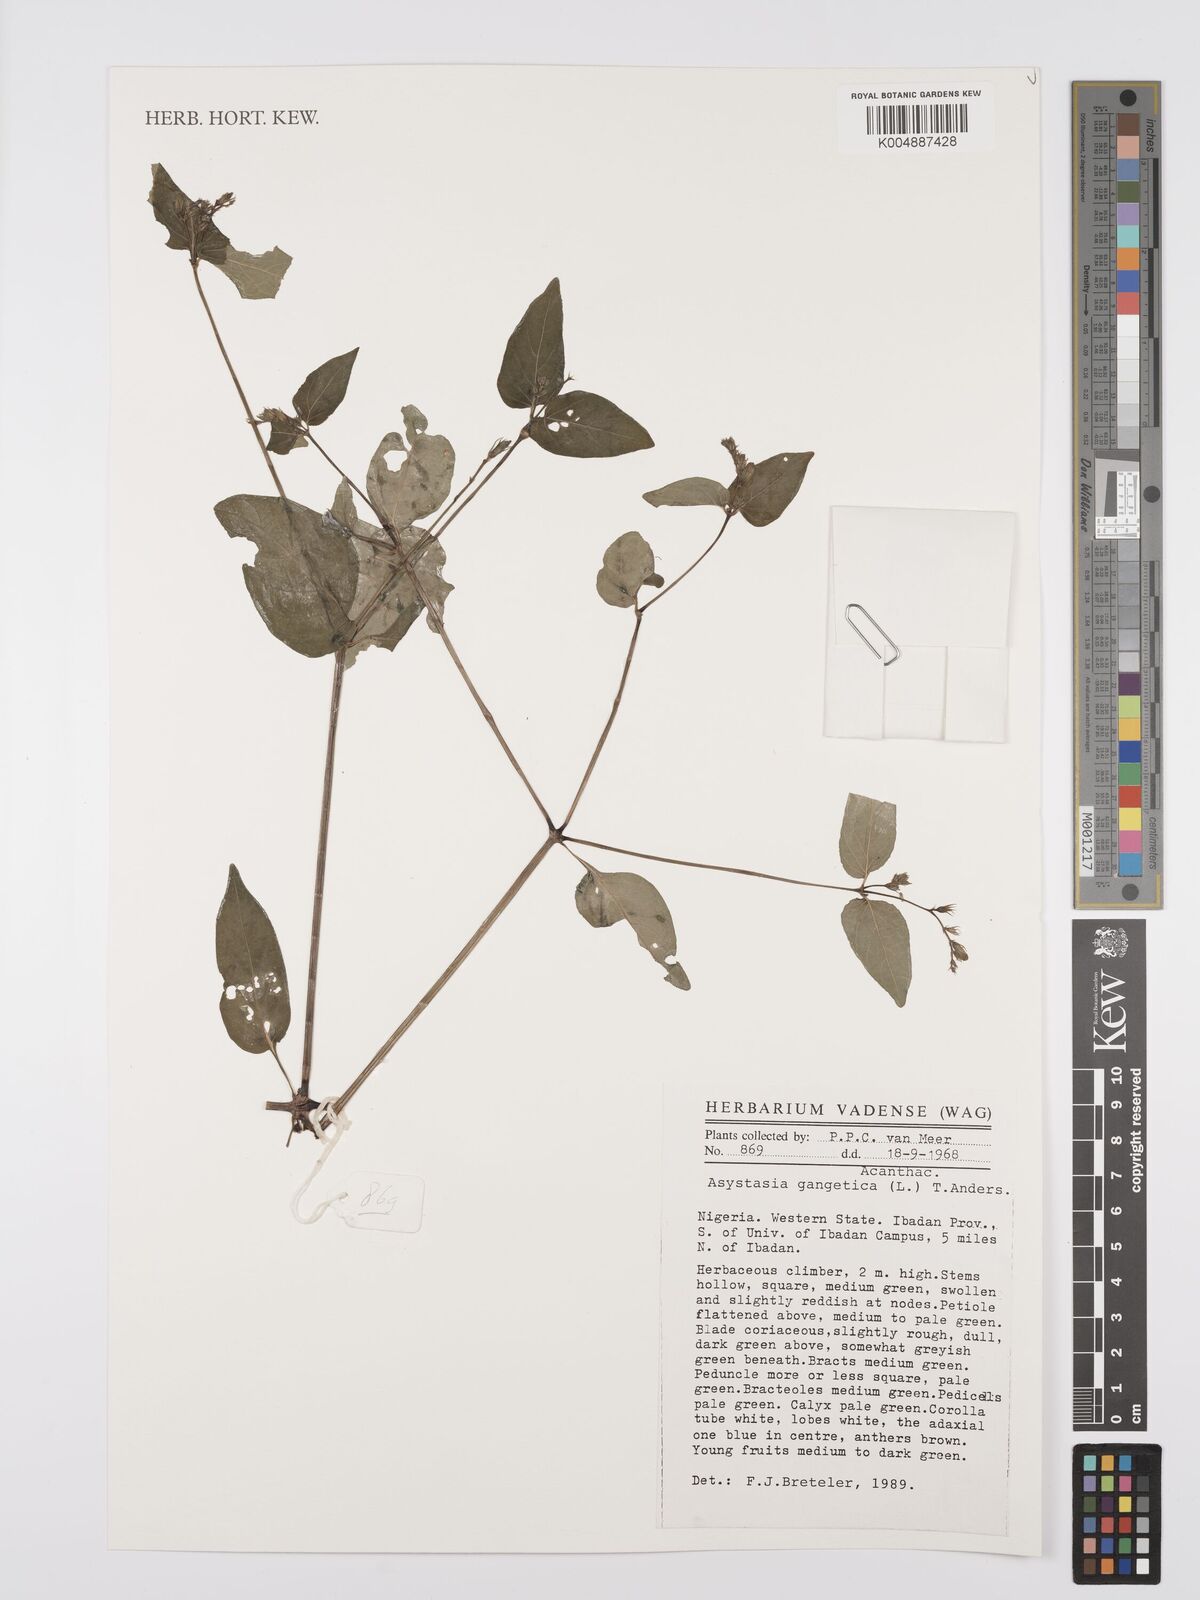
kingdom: Plantae
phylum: Tracheophyta
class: Magnoliopsida
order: Lamiales
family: Acanthaceae
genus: Asystasia
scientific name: Asystasia gangetica
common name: Chinese violet
